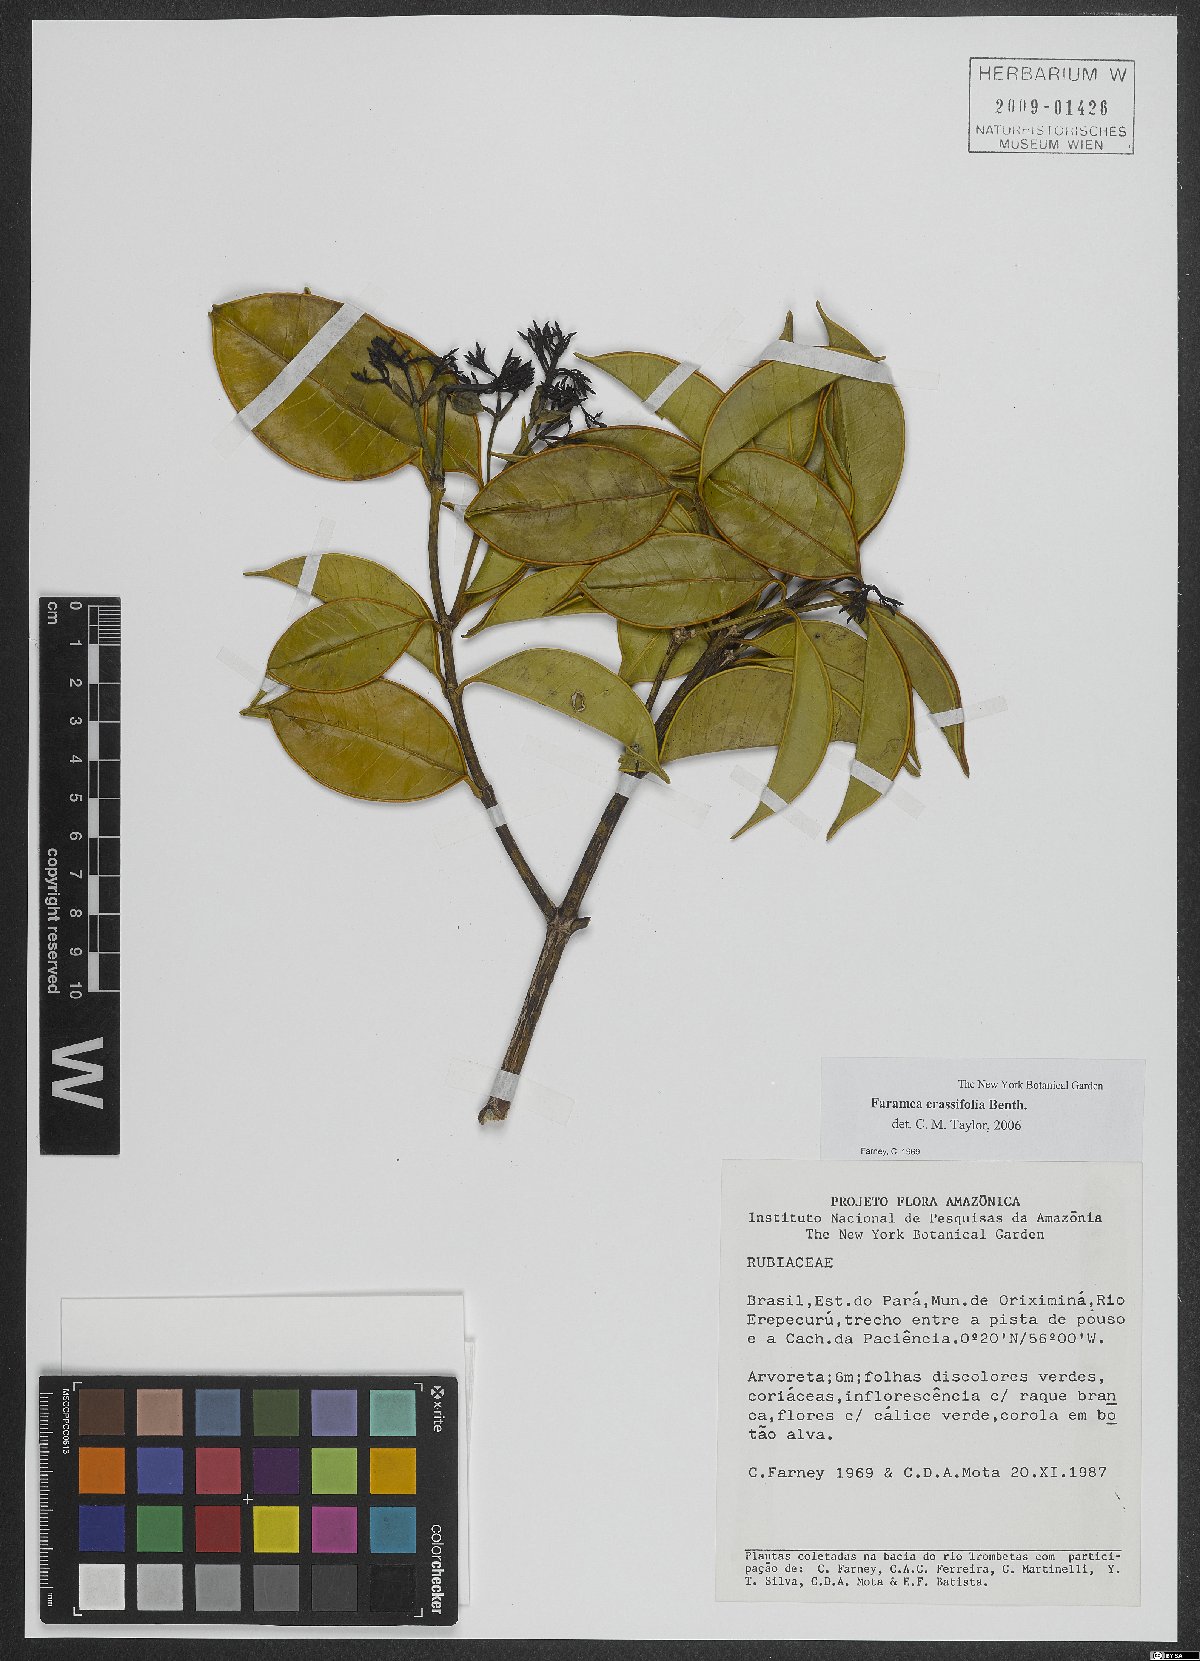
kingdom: Plantae
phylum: Tracheophyta
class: Magnoliopsida
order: Gentianales
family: Rubiaceae
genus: Faramea
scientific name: Faramea crassifolia
